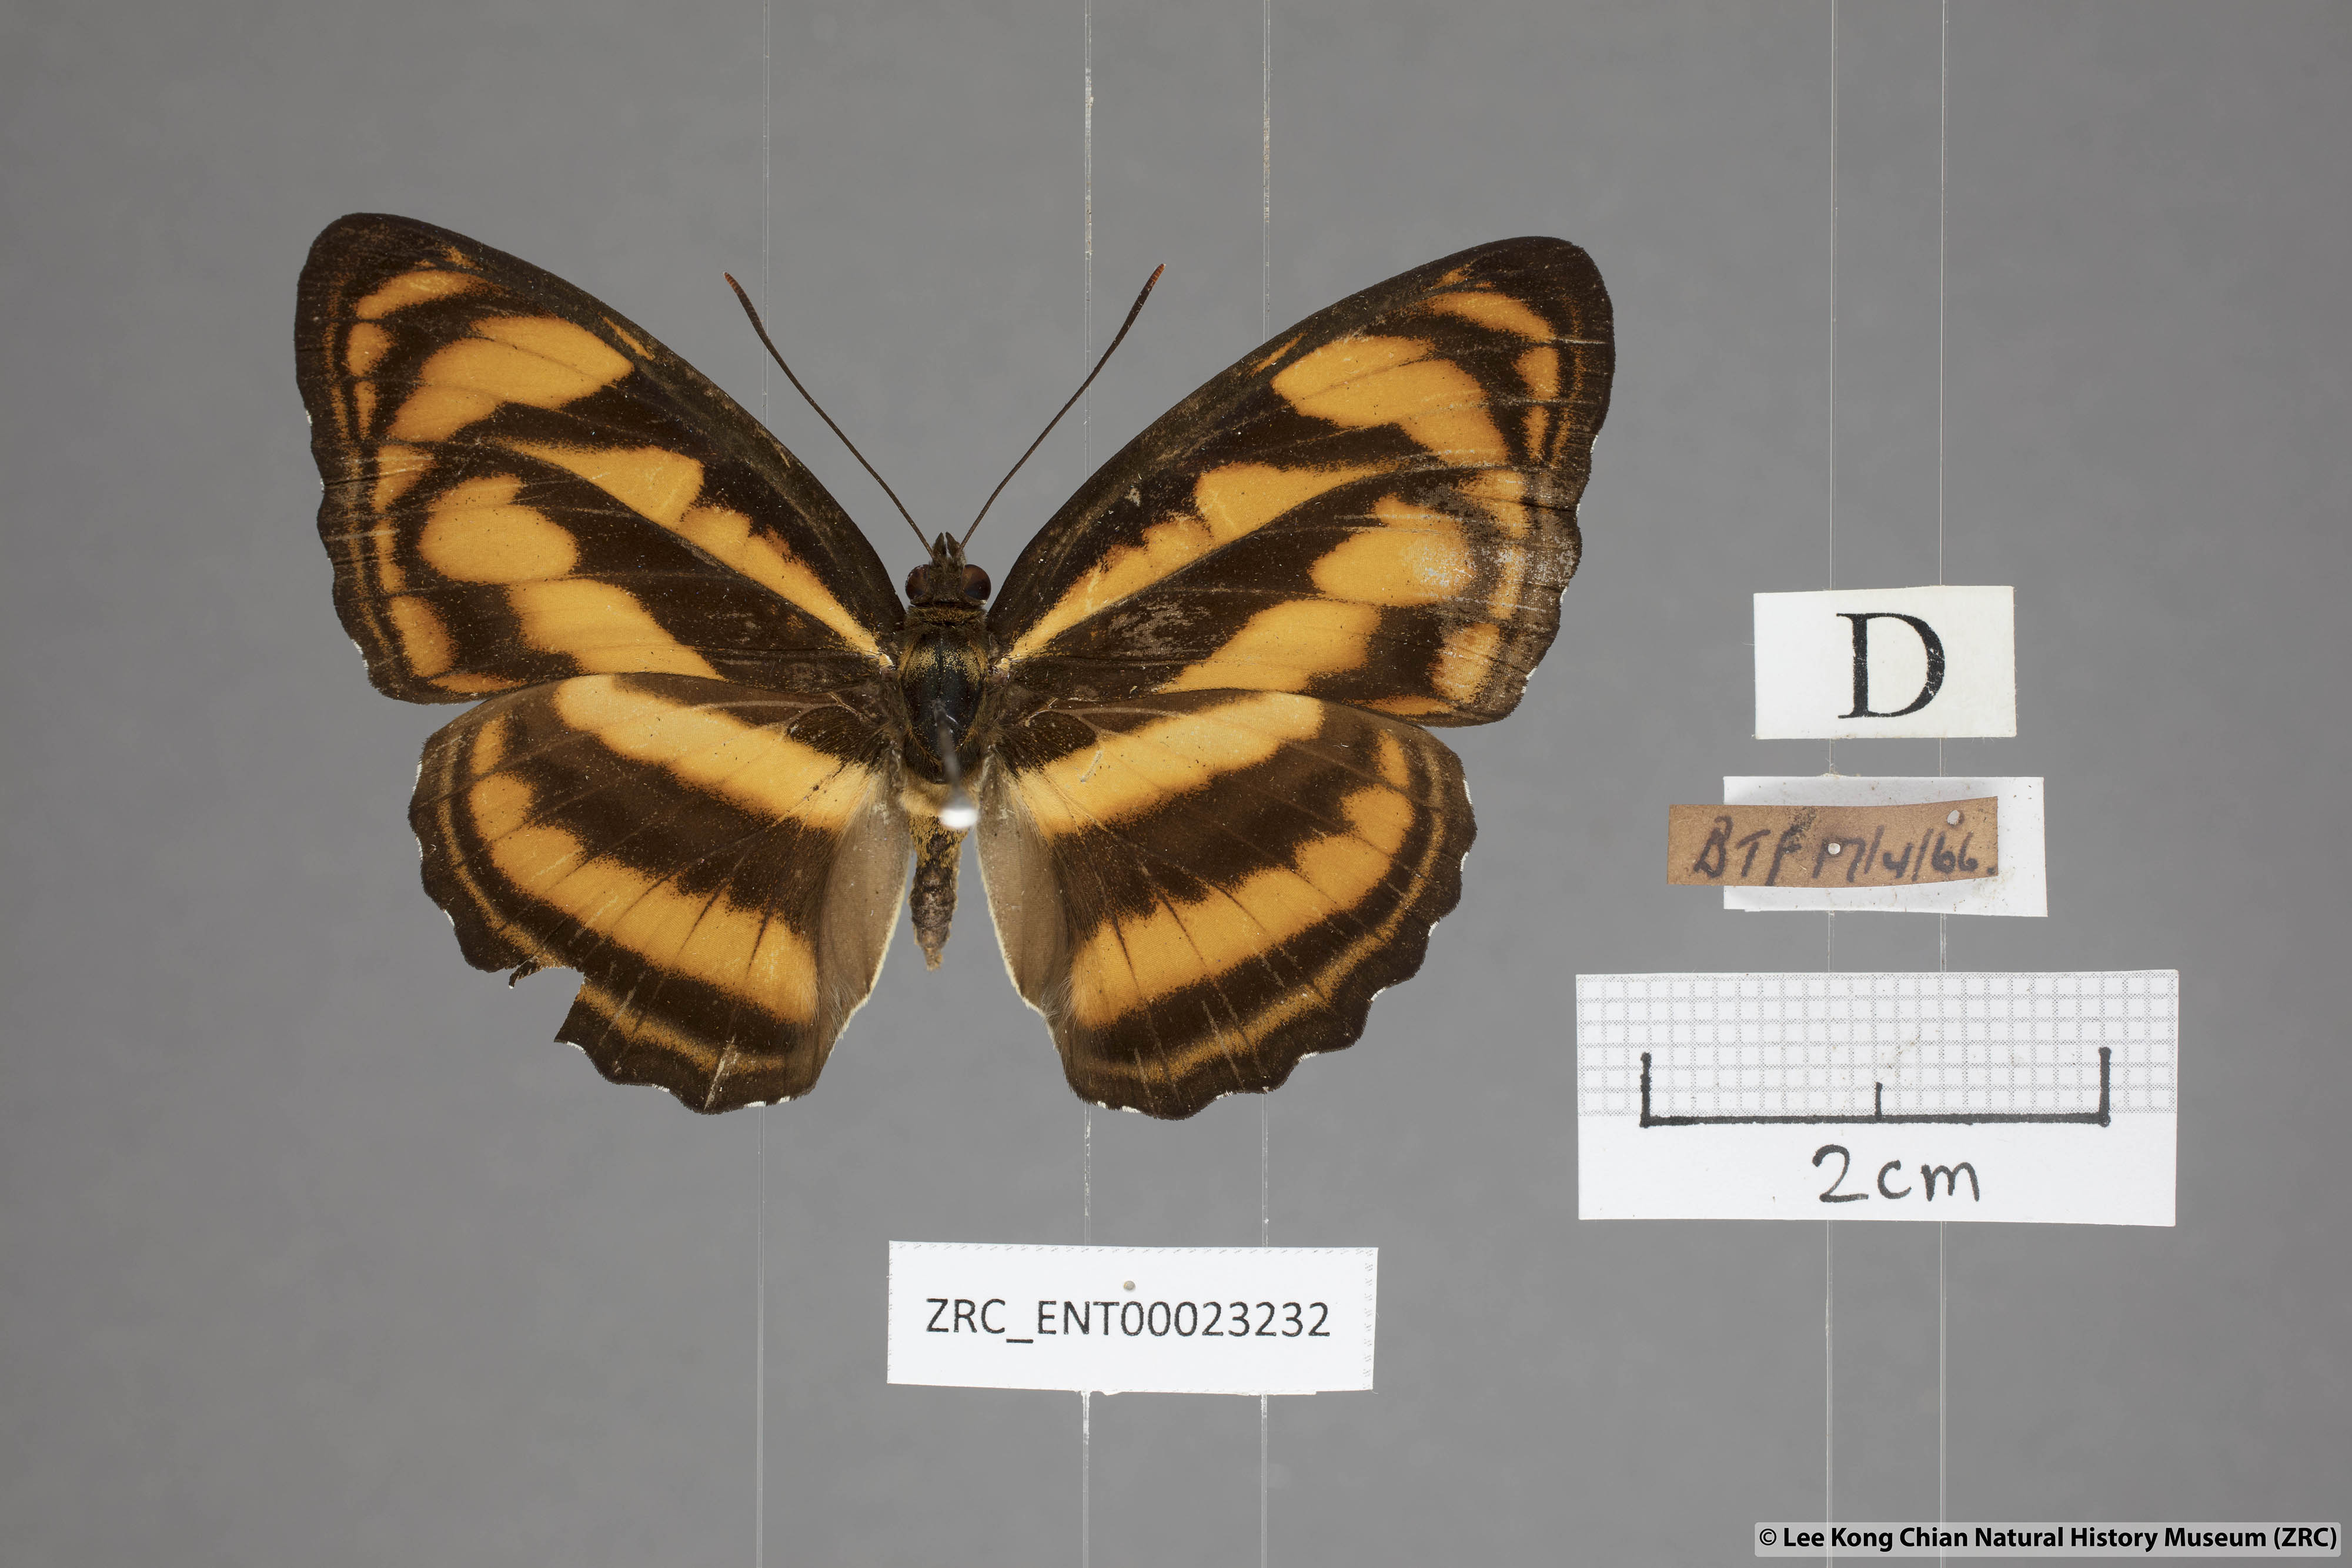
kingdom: Animalia
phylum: Arthropoda
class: Insecta
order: Lepidoptera
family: Nymphalidae
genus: Parathyma
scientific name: Parathyma nefte
